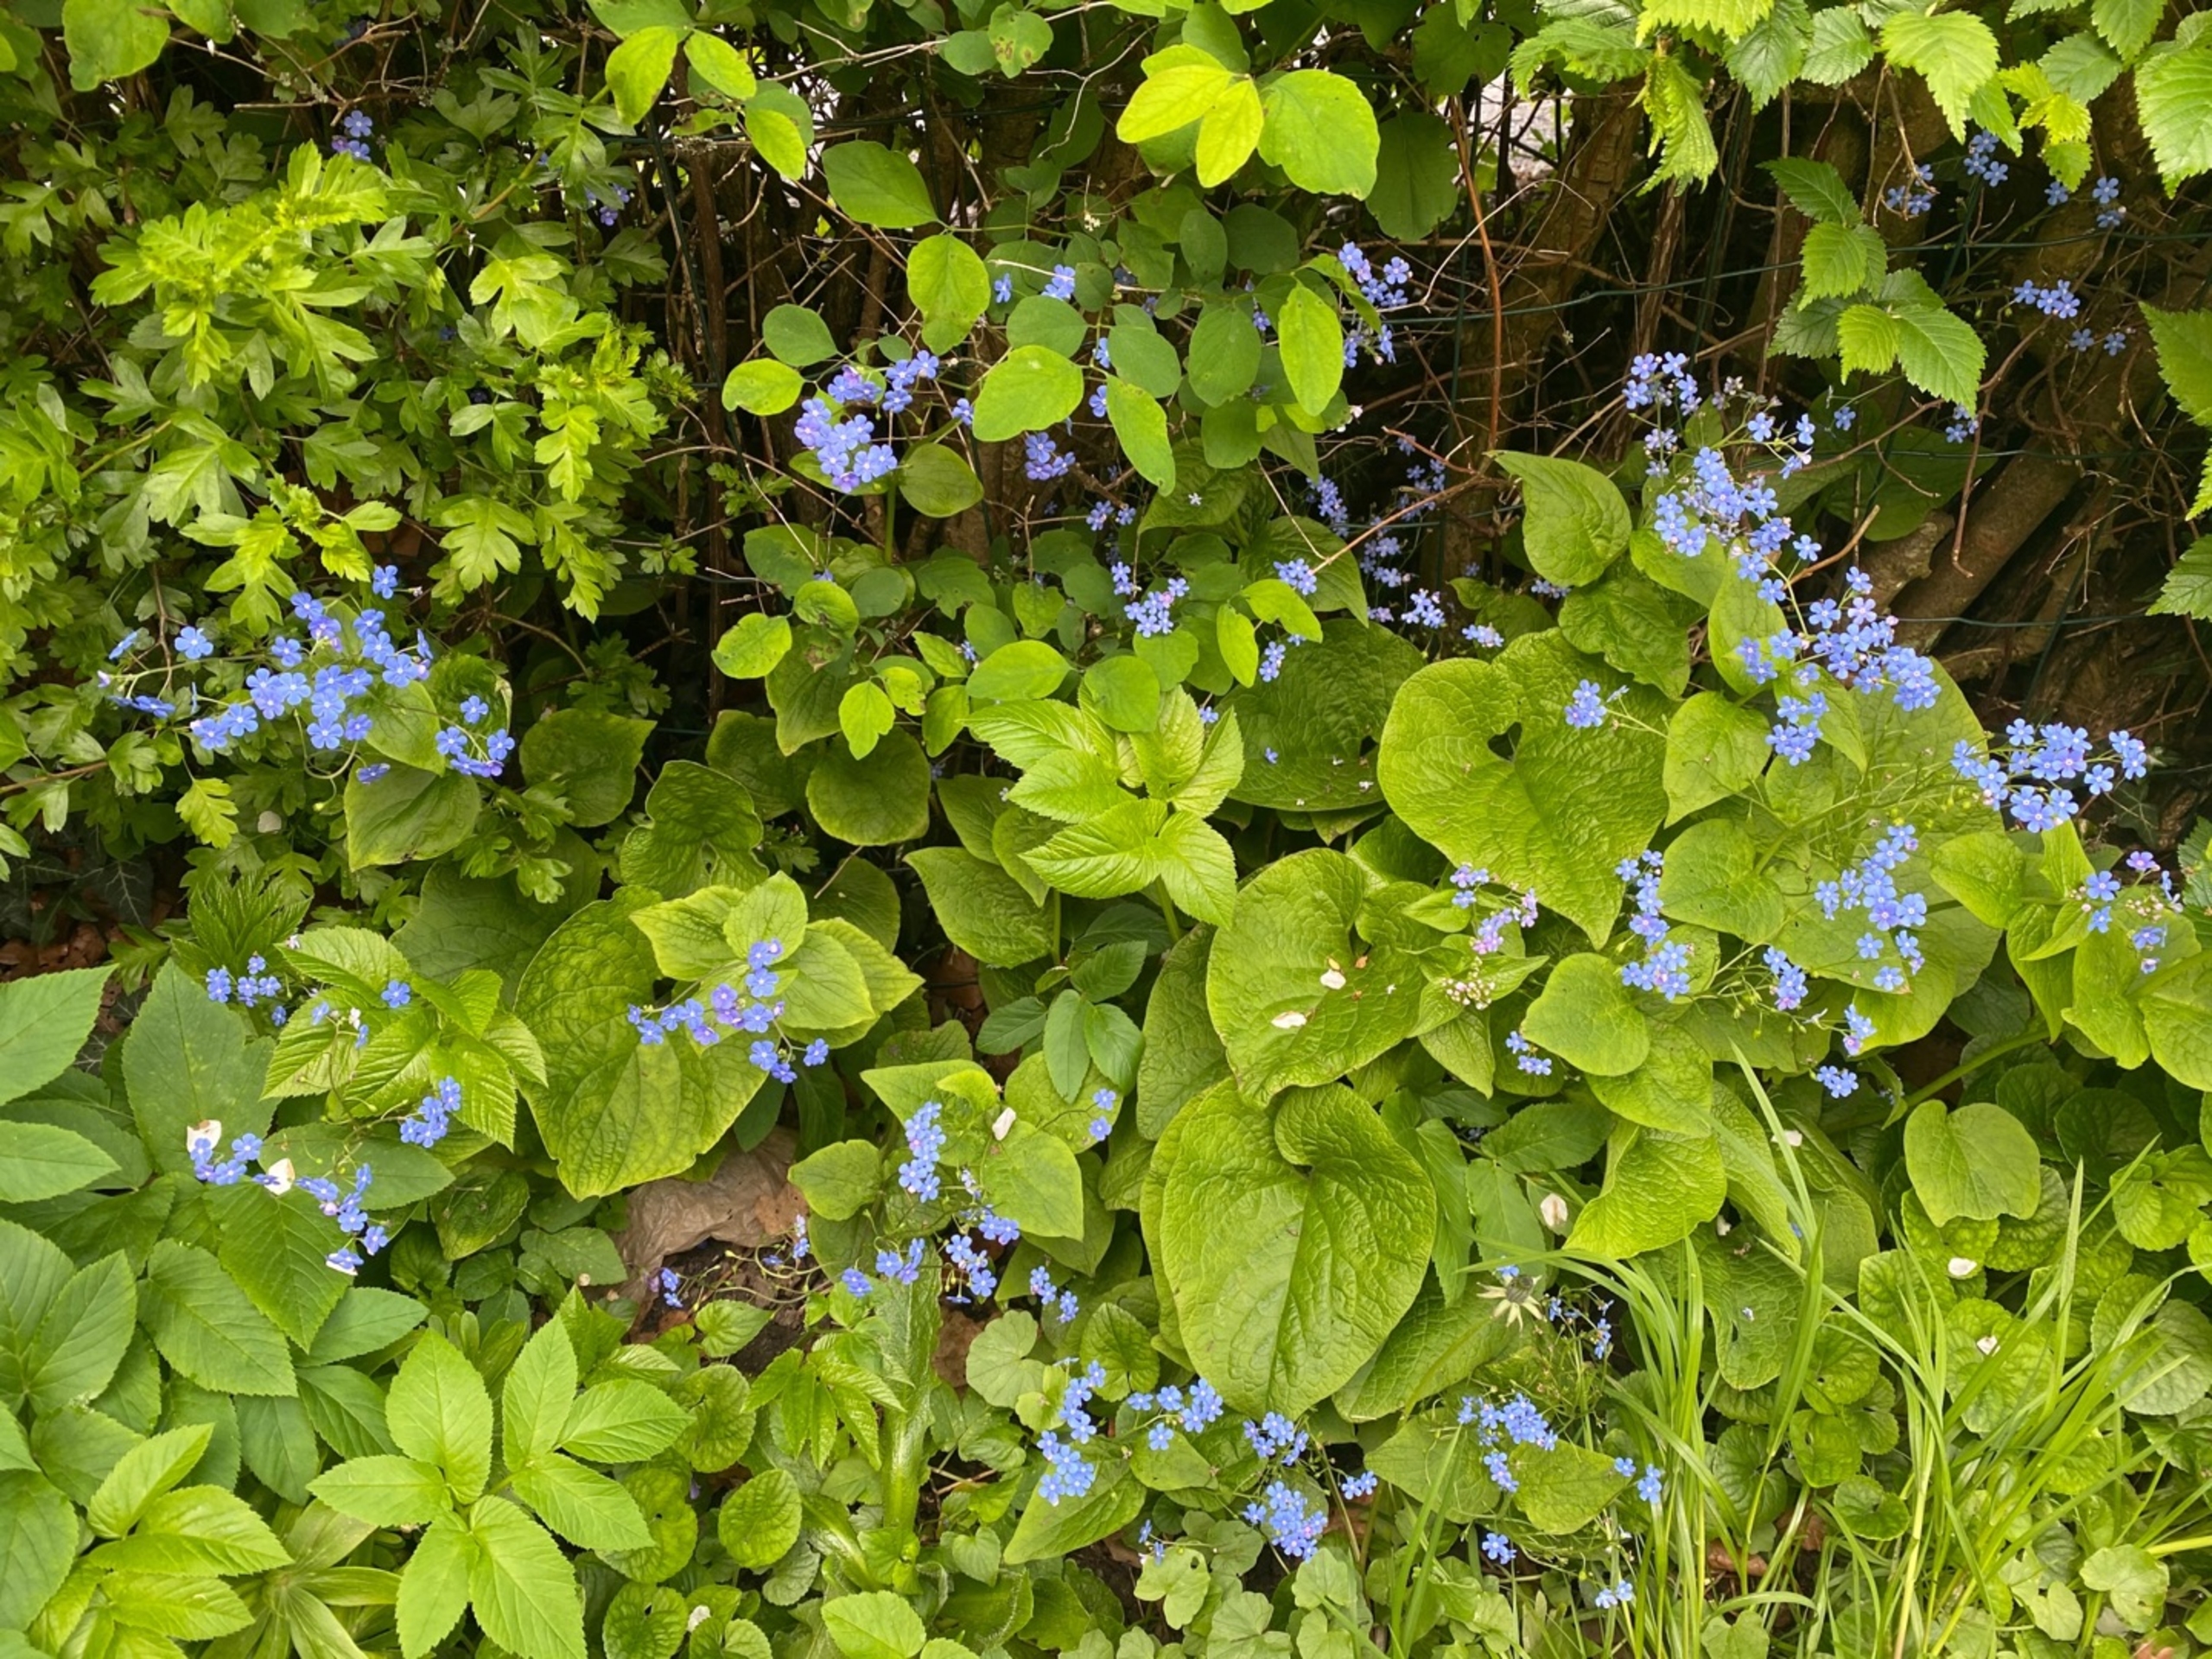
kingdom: Plantae
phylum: Tracheophyta
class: Magnoliopsida
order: Boraginales
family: Boraginaceae
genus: Brunnera
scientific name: Brunnera macrophylla
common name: Kærmindesøster
